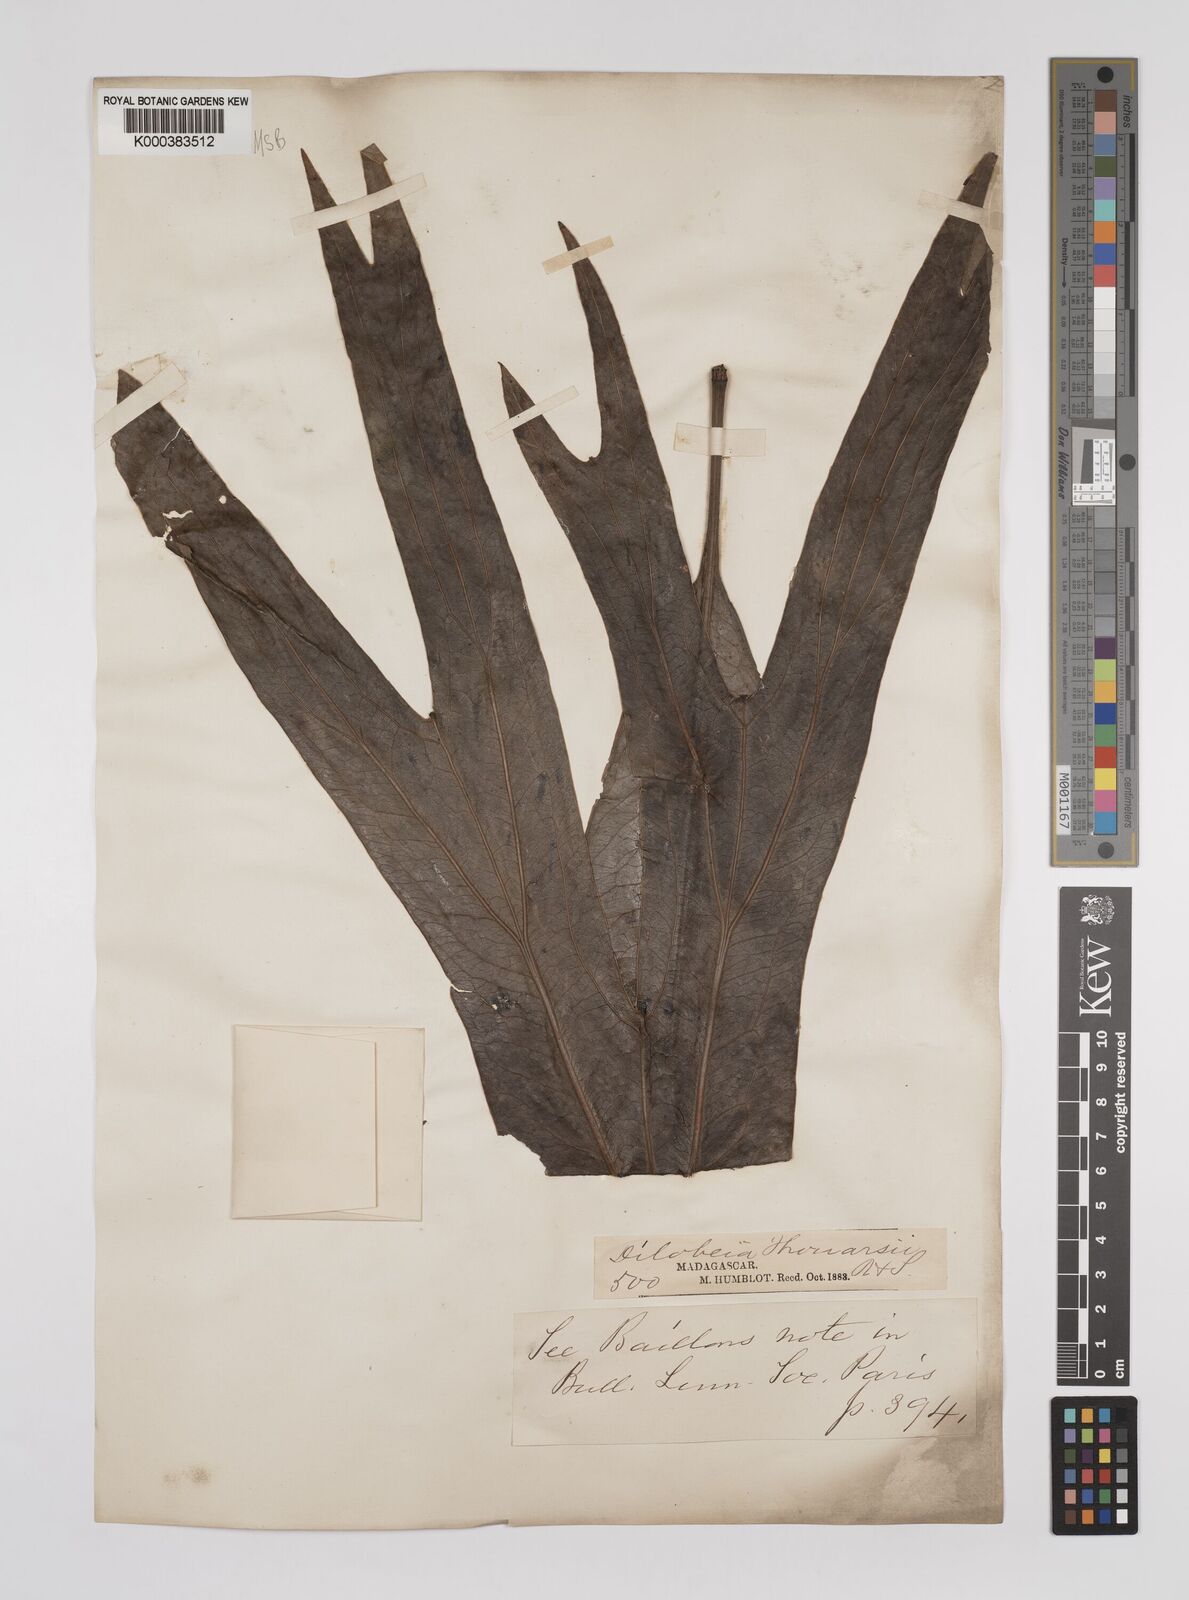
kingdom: Plantae
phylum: Tracheophyta
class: Magnoliopsida
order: Proteales
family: Proteaceae
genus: Dilobeia
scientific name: Dilobeia thouarsii
